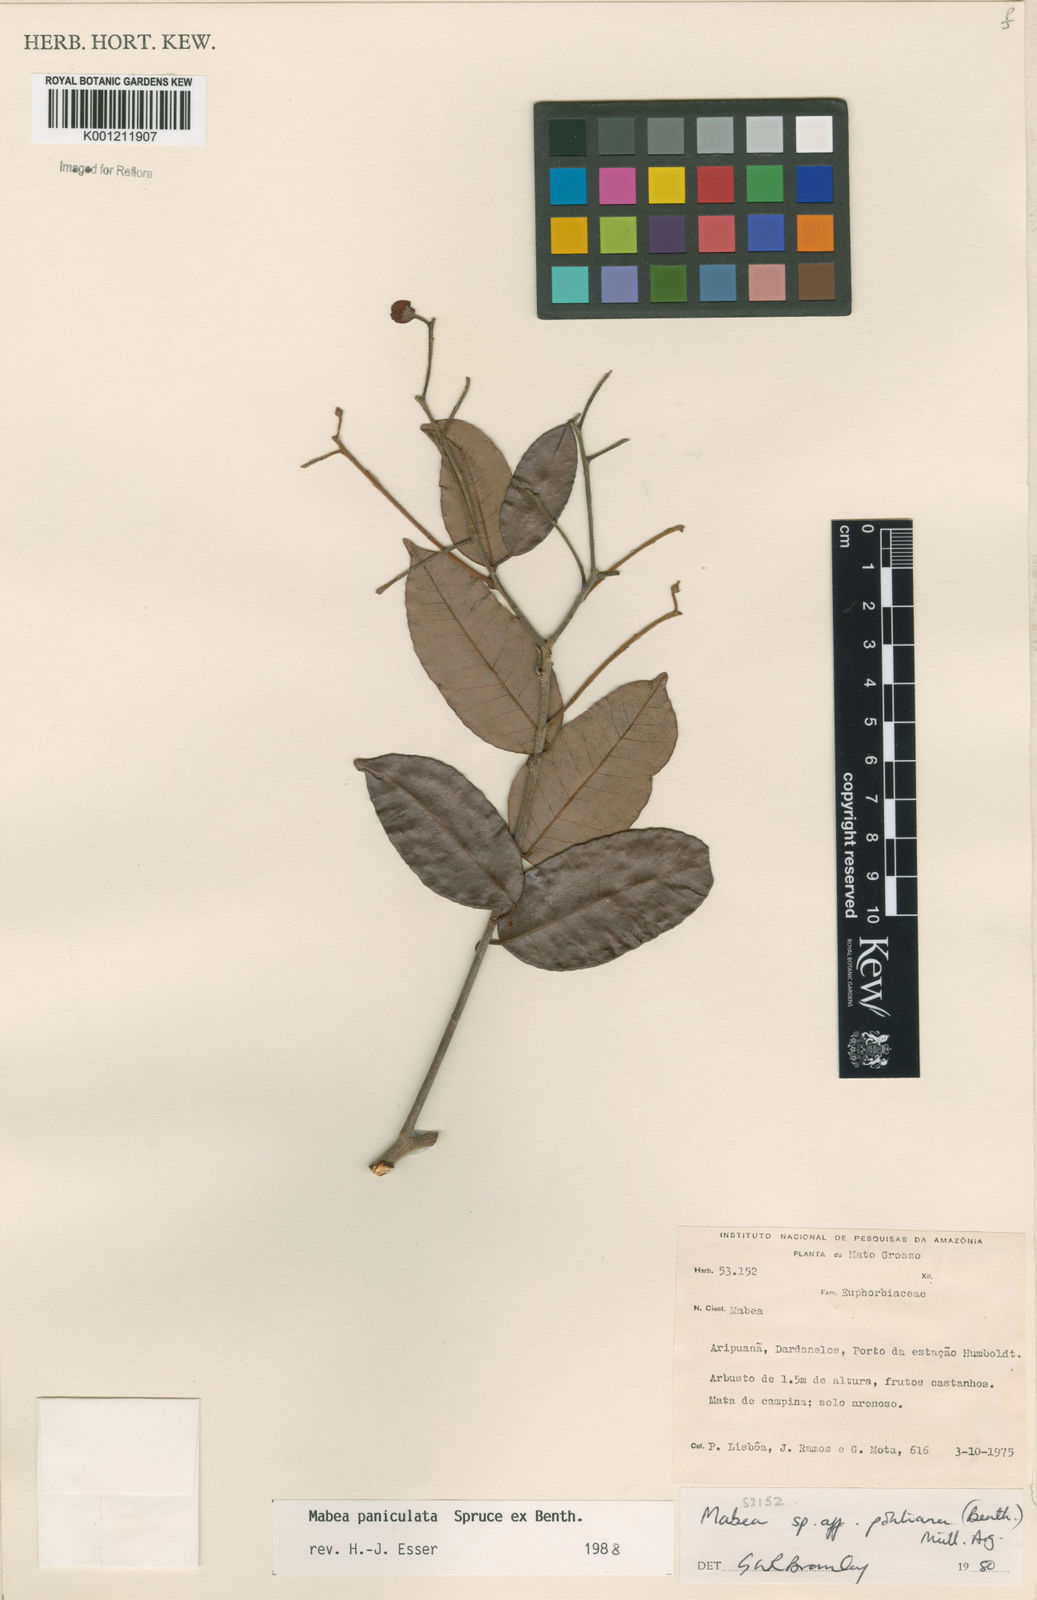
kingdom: Plantae
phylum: Tracheophyta
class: Magnoliopsida
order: Malpighiales
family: Euphorbiaceae
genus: Mabea
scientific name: Mabea paniculata
